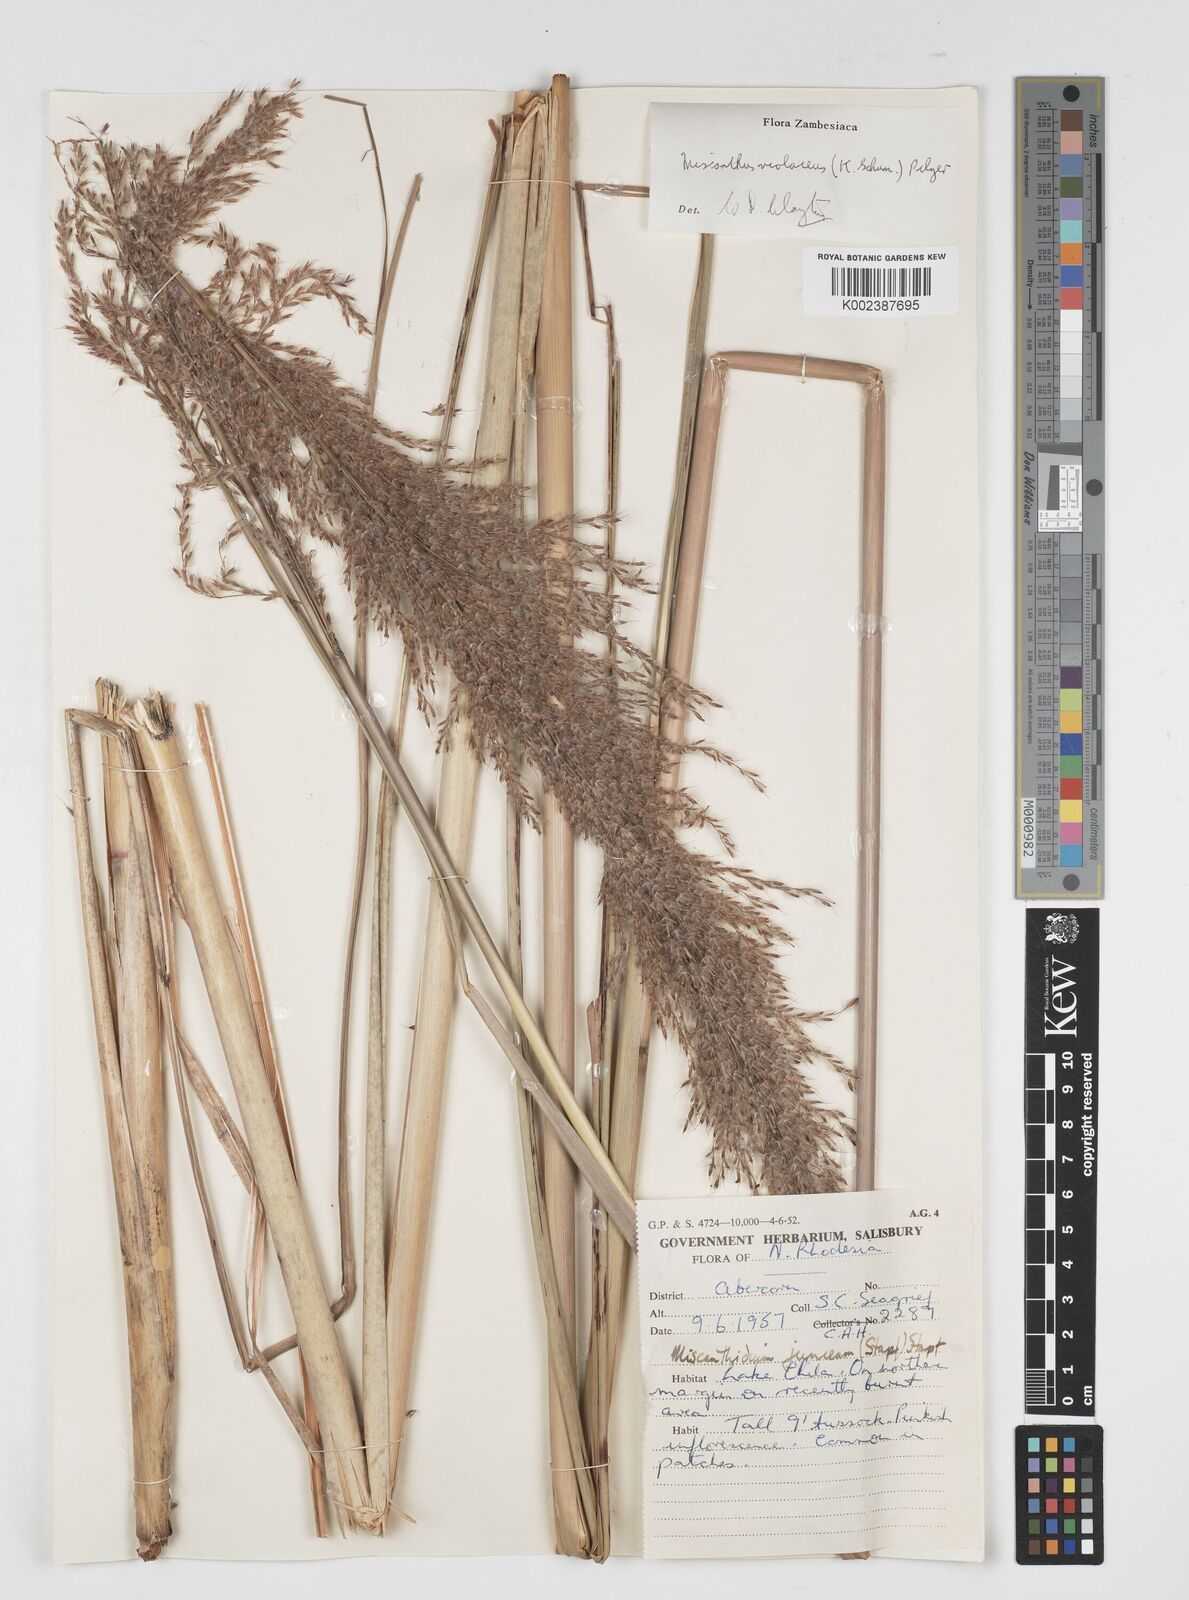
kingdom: Plantae
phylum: Tracheophyta
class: Liliopsida
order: Poales
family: Poaceae
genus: Miscanthidium
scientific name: Miscanthidium violaceum
